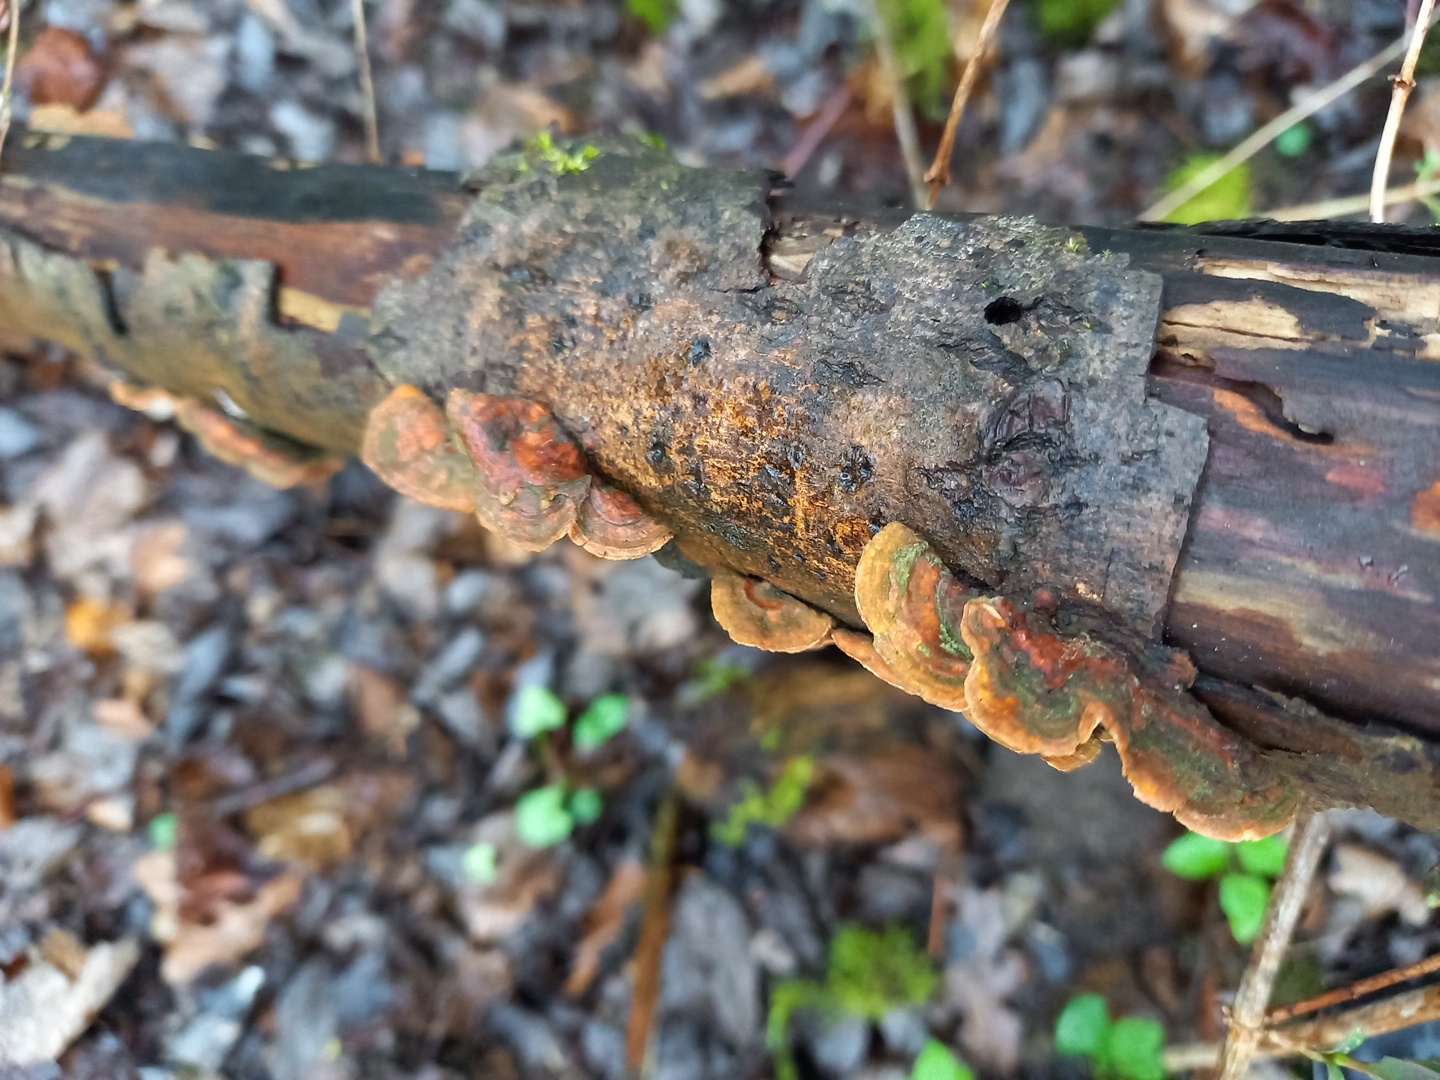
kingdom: Fungi
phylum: Basidiomycota
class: Agaricomycetes
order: Russulales
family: Stereaceae
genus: Stereum
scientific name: Stereum subtomentosum
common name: smuk lædersvamp
